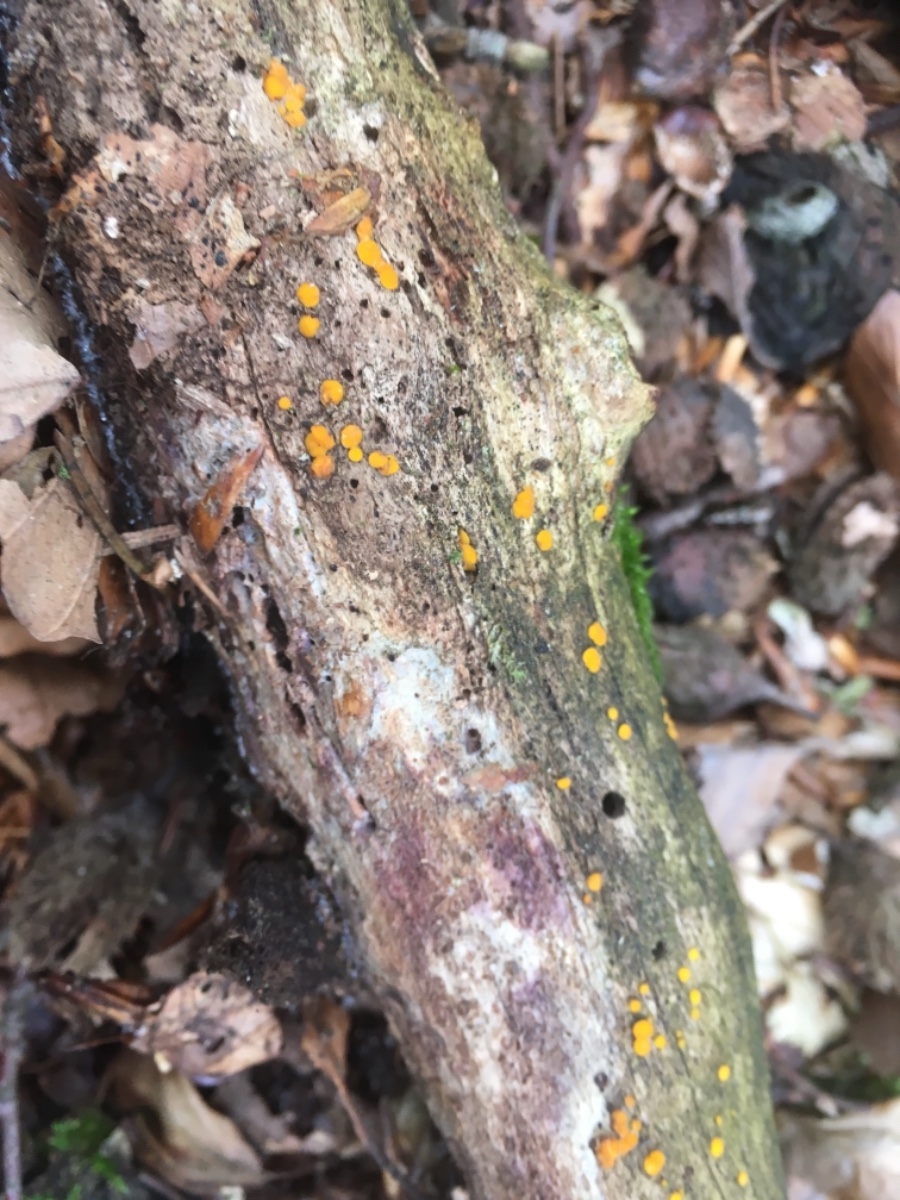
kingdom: Fungi
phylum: Ascomycota
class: Leotiomycetes
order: Helotiales
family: Pezizellaceae
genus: Calycina
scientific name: Calycina citrina
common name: almindelig gulskive
